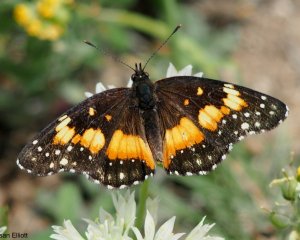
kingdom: Animalia
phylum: Arthropoda
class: Insecta
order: Lepidoptera
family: Nymphalidae
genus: Chlosyne
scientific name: Chlosyne lacinia
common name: Bordered Patch
